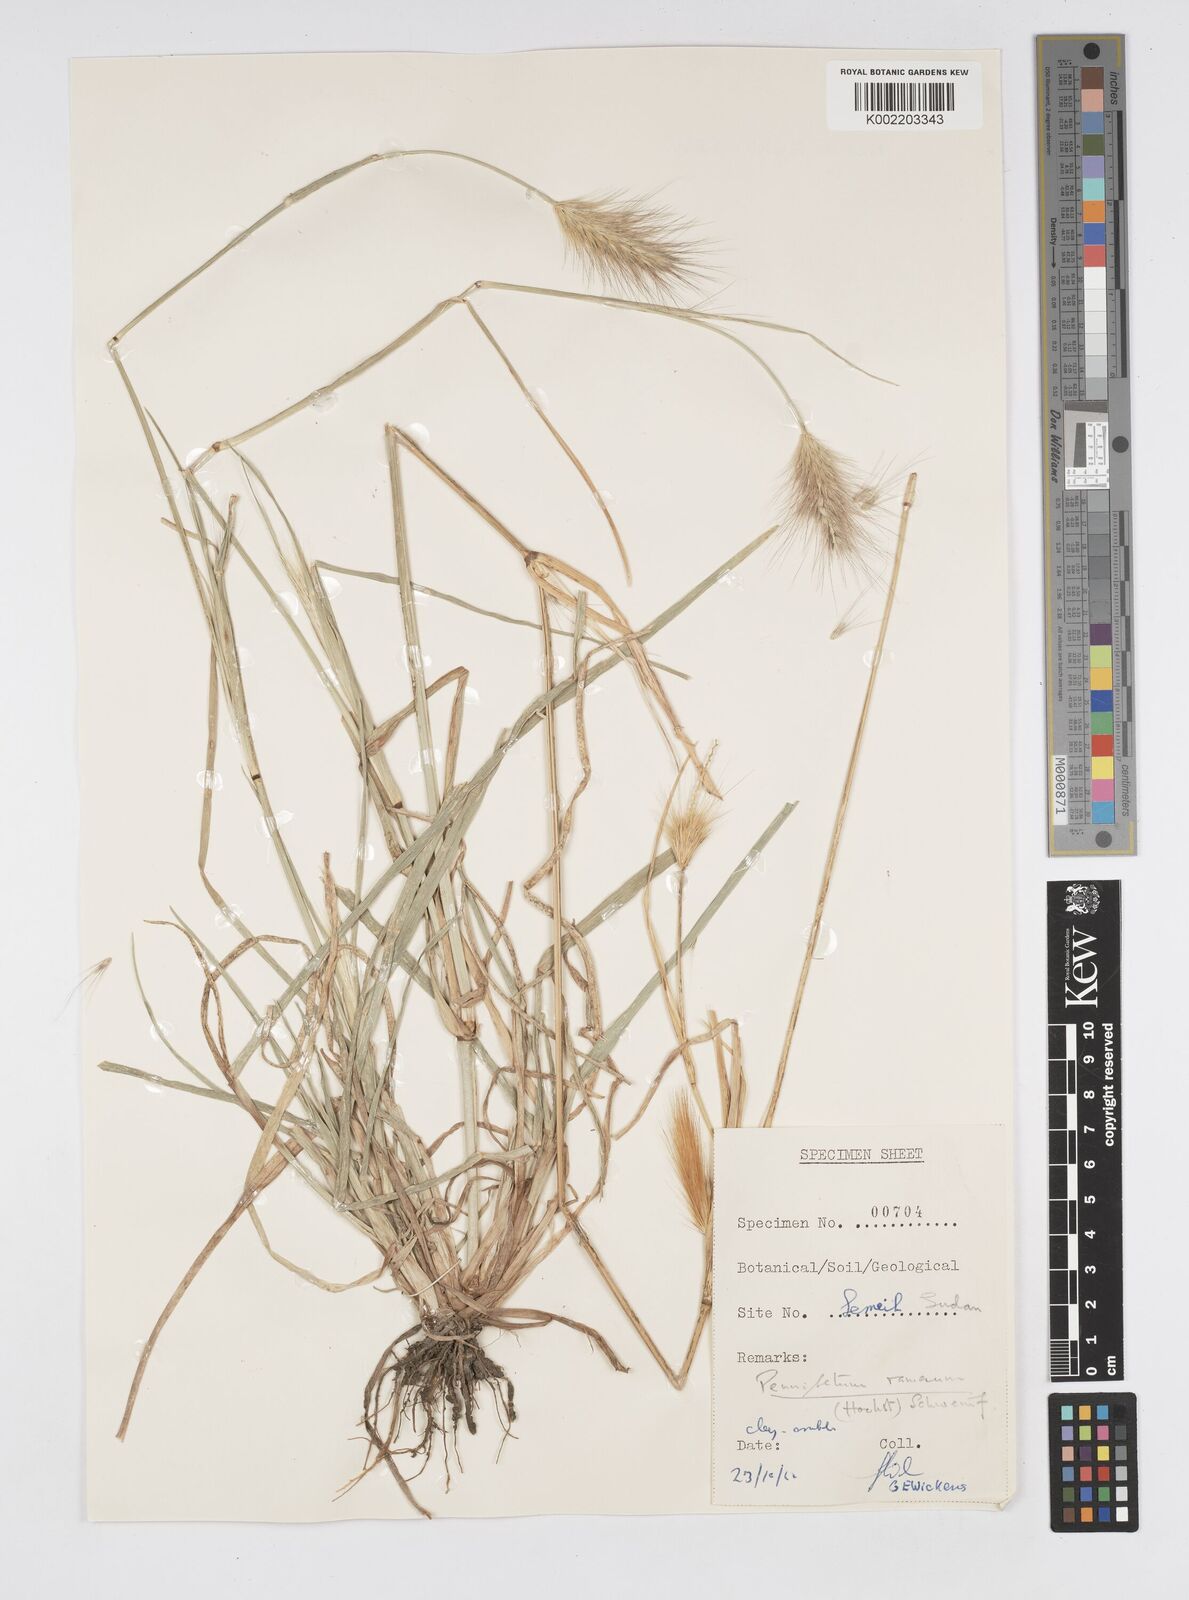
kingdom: Plantae
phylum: Tracheophyta
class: Liliopsida
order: Poales
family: Poaceae
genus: Cenchrus
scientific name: Cenchrus ramosus
